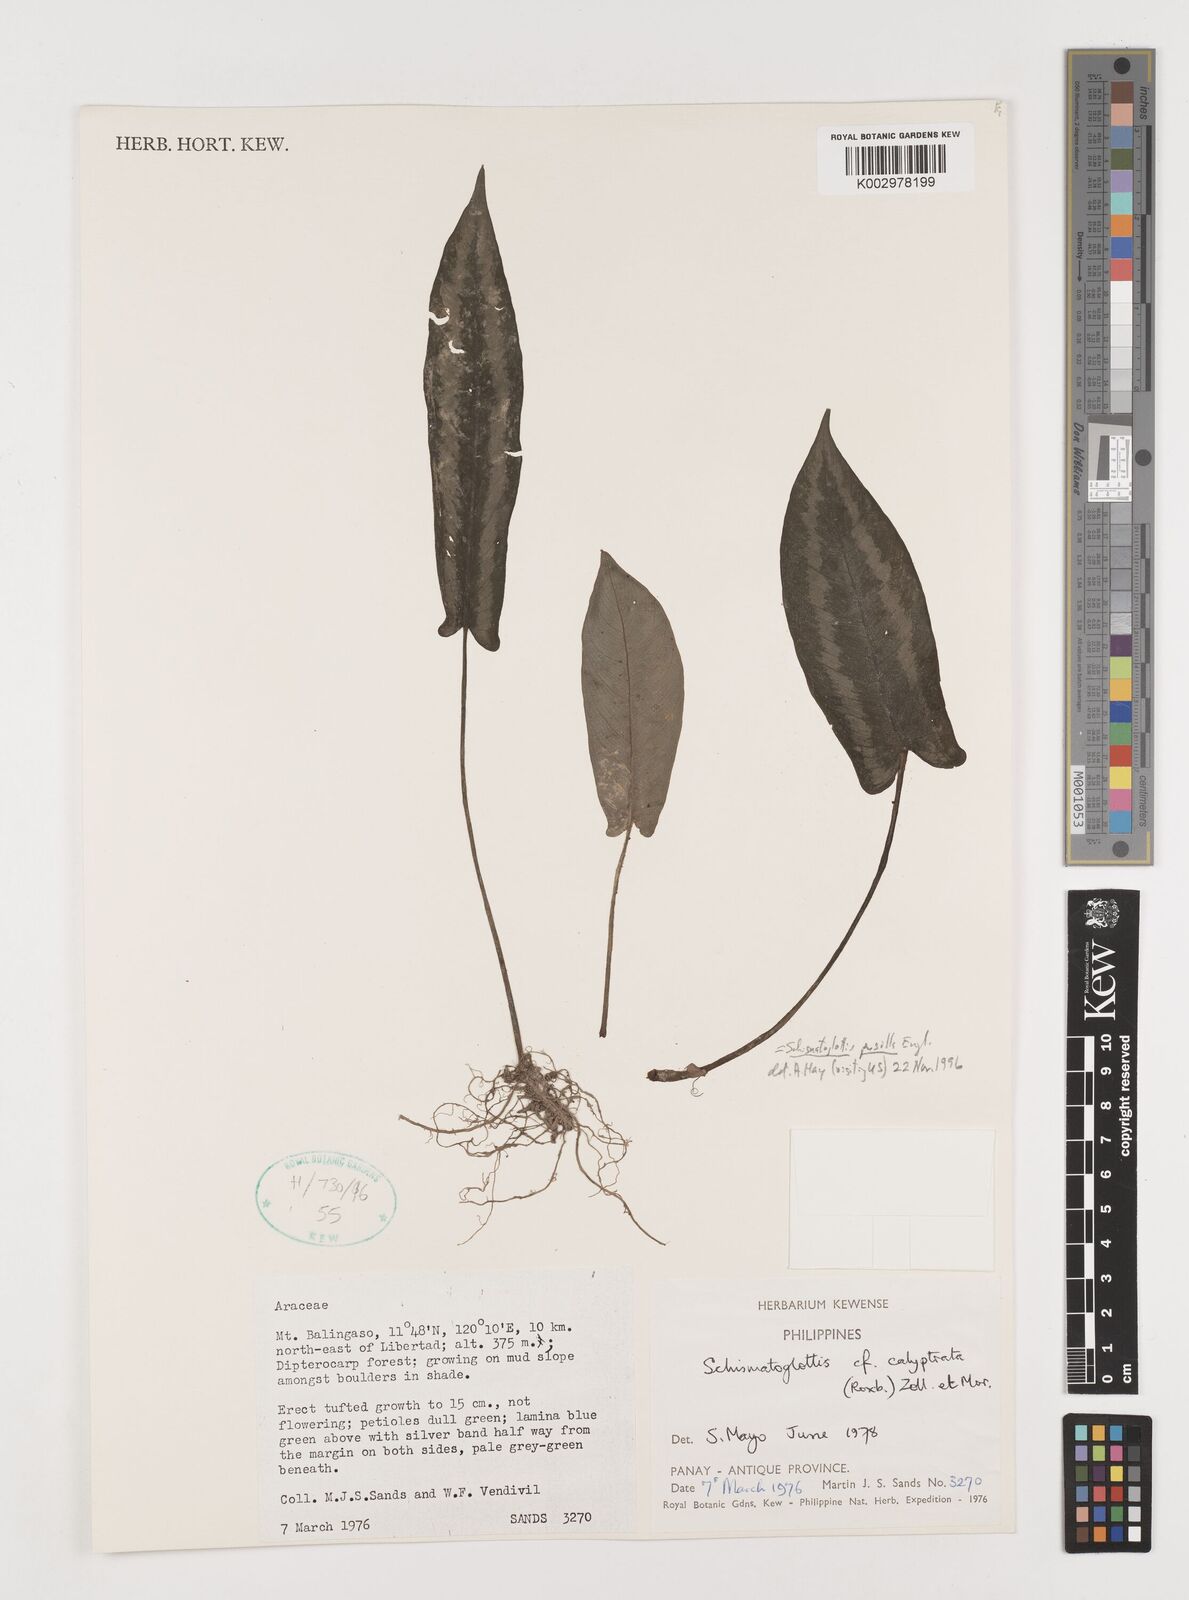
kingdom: Plantae
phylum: Tracheophyta
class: Liliopsida
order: Alismatales
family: Araceae
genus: Schismatoglottis
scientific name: Schismatoglottis pusilla
